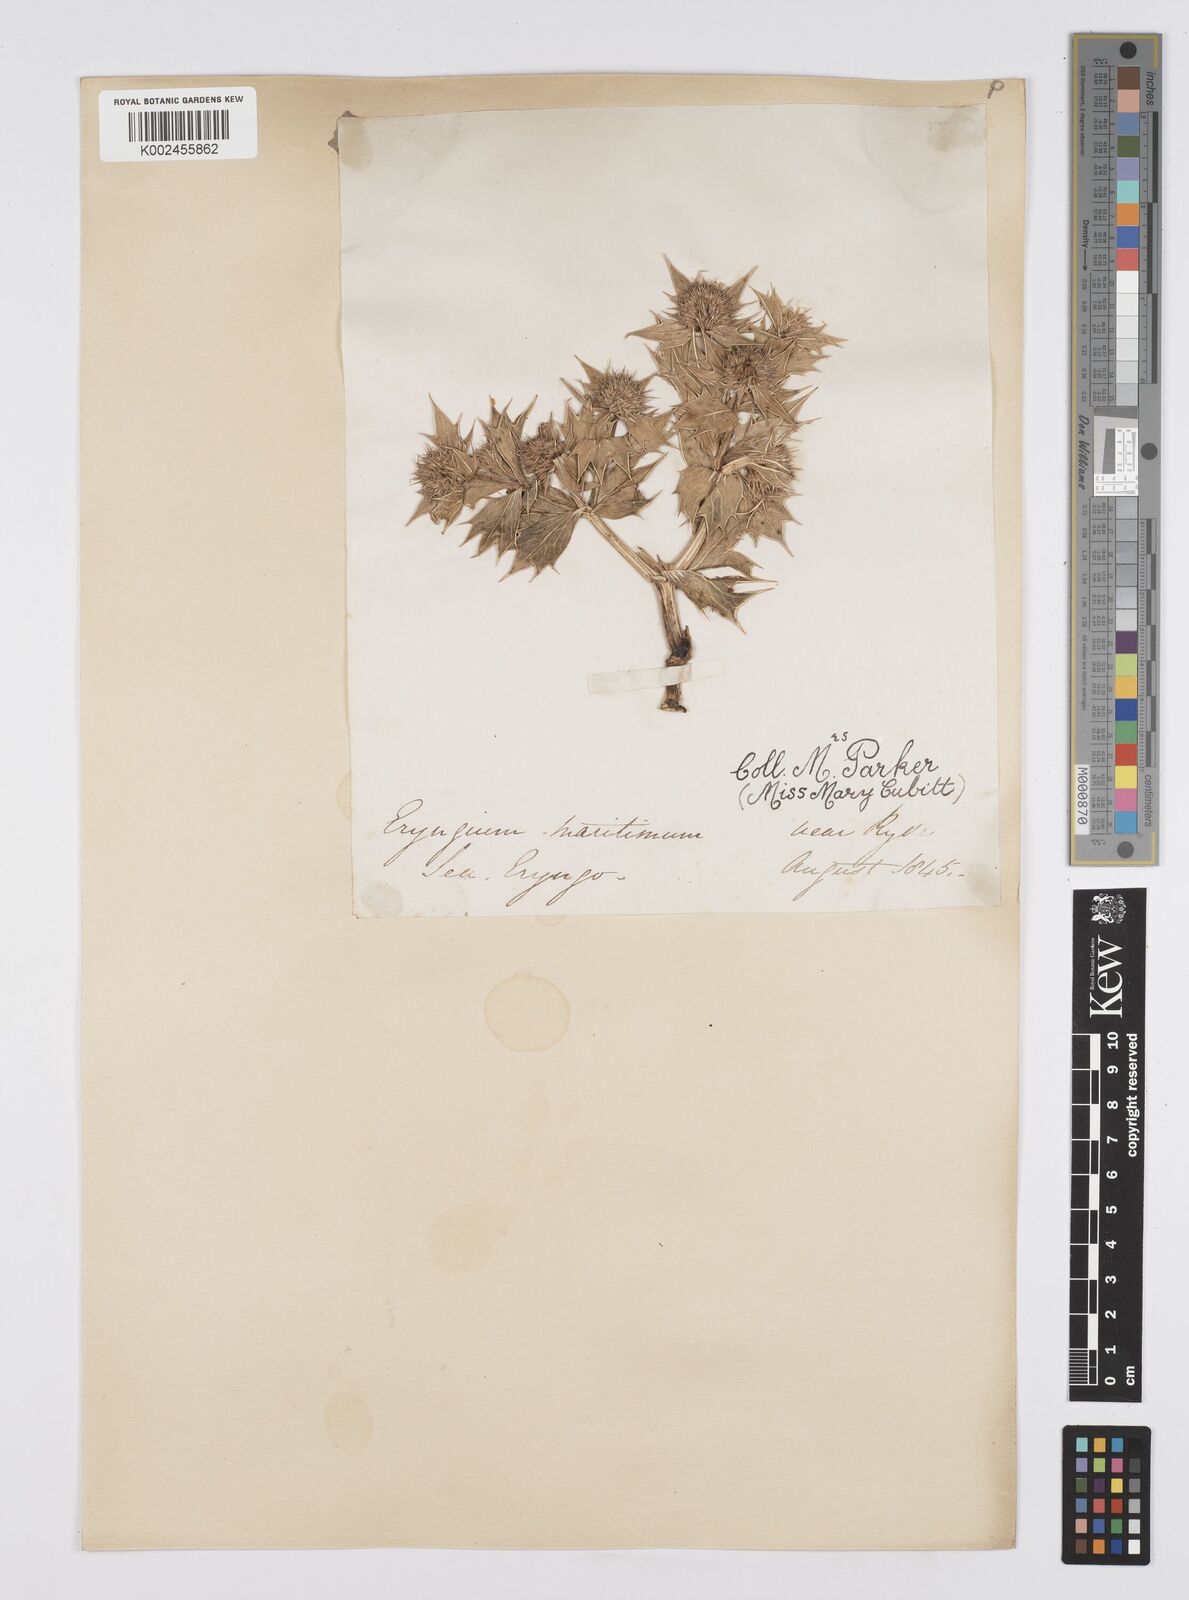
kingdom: Plantae
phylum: Tracheophyta
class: Magnoliopsida
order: Apiales
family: Apiaceae
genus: Eryngium
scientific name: Eryngium maritimum
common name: Sea-holly
